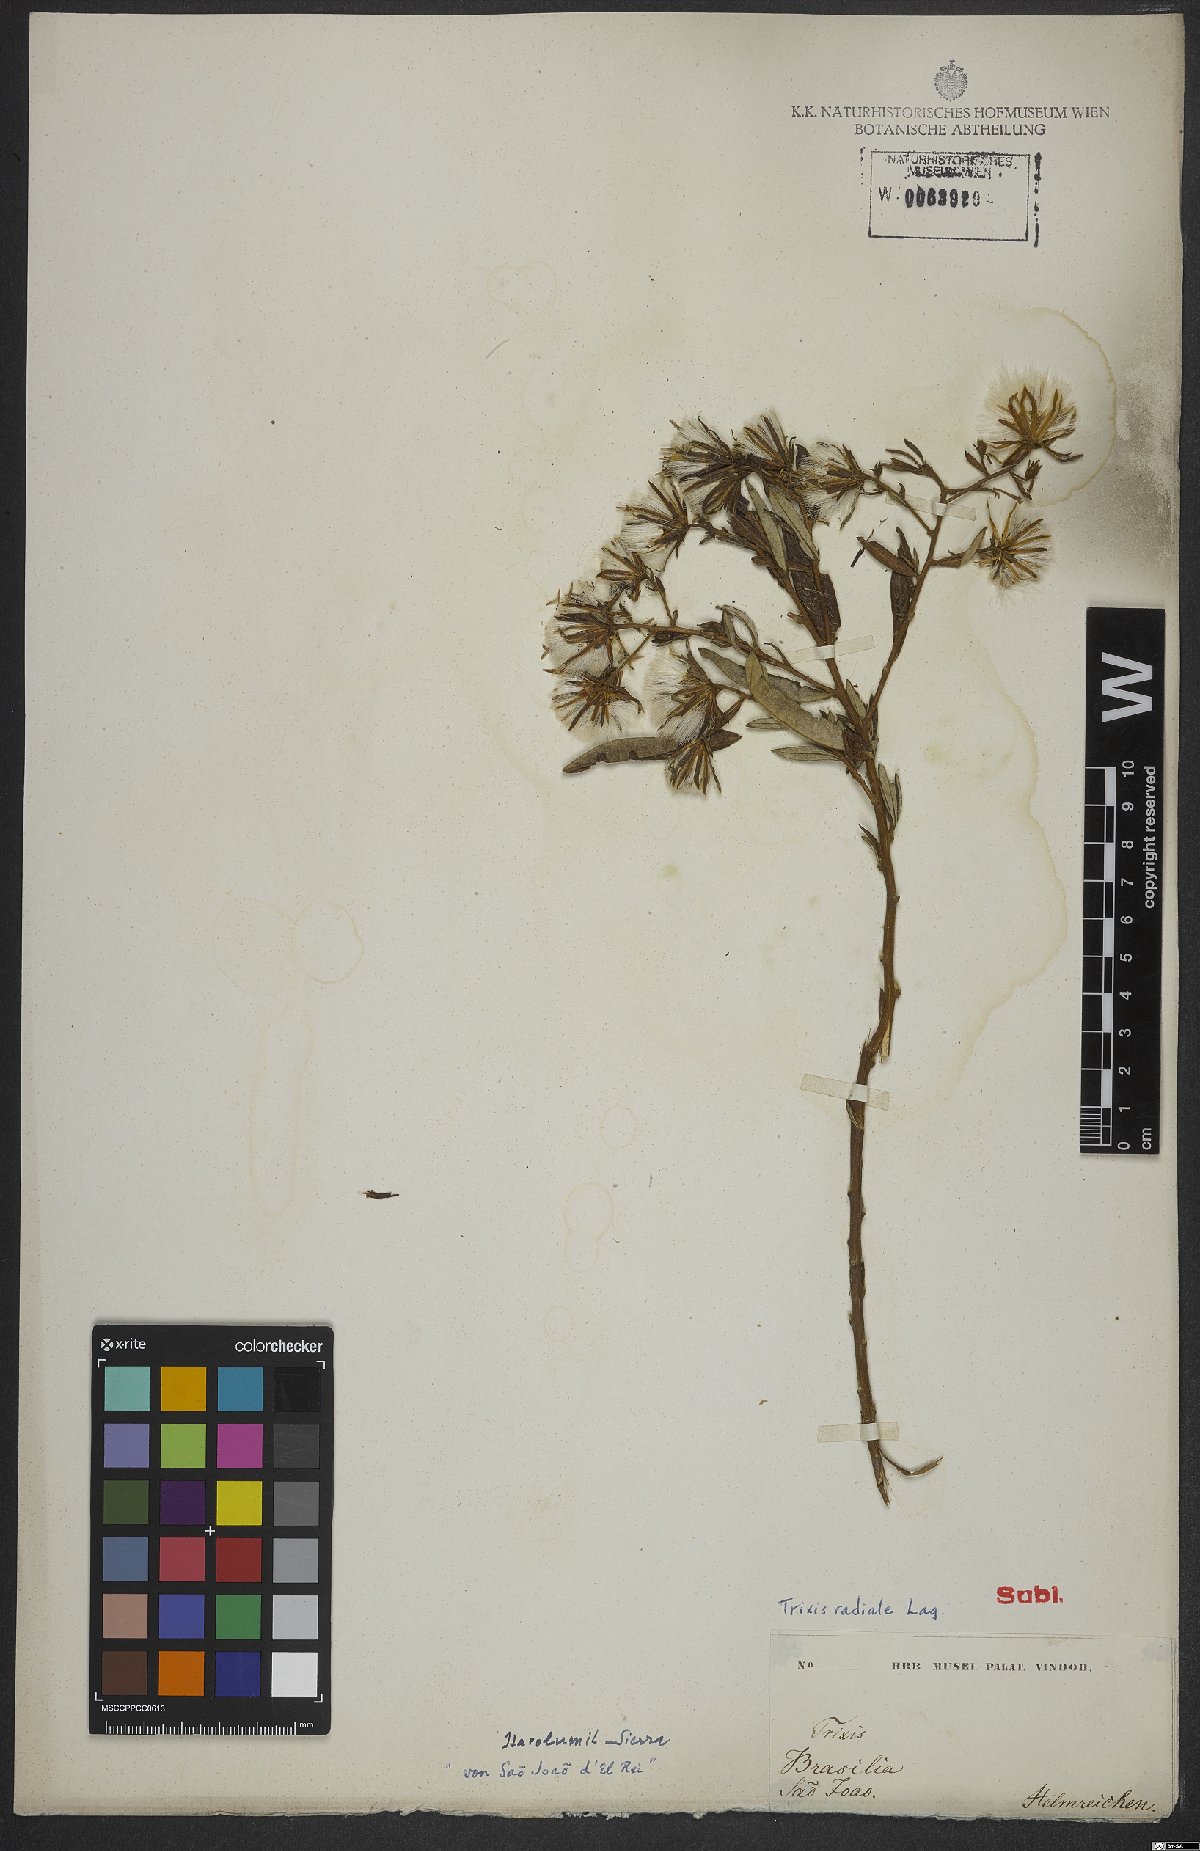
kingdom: Plantae
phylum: Tracheophyta
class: Magnoliopsida
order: Asterales
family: Asteraceae
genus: Trixis
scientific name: Trixis inula
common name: Tropical threefold
